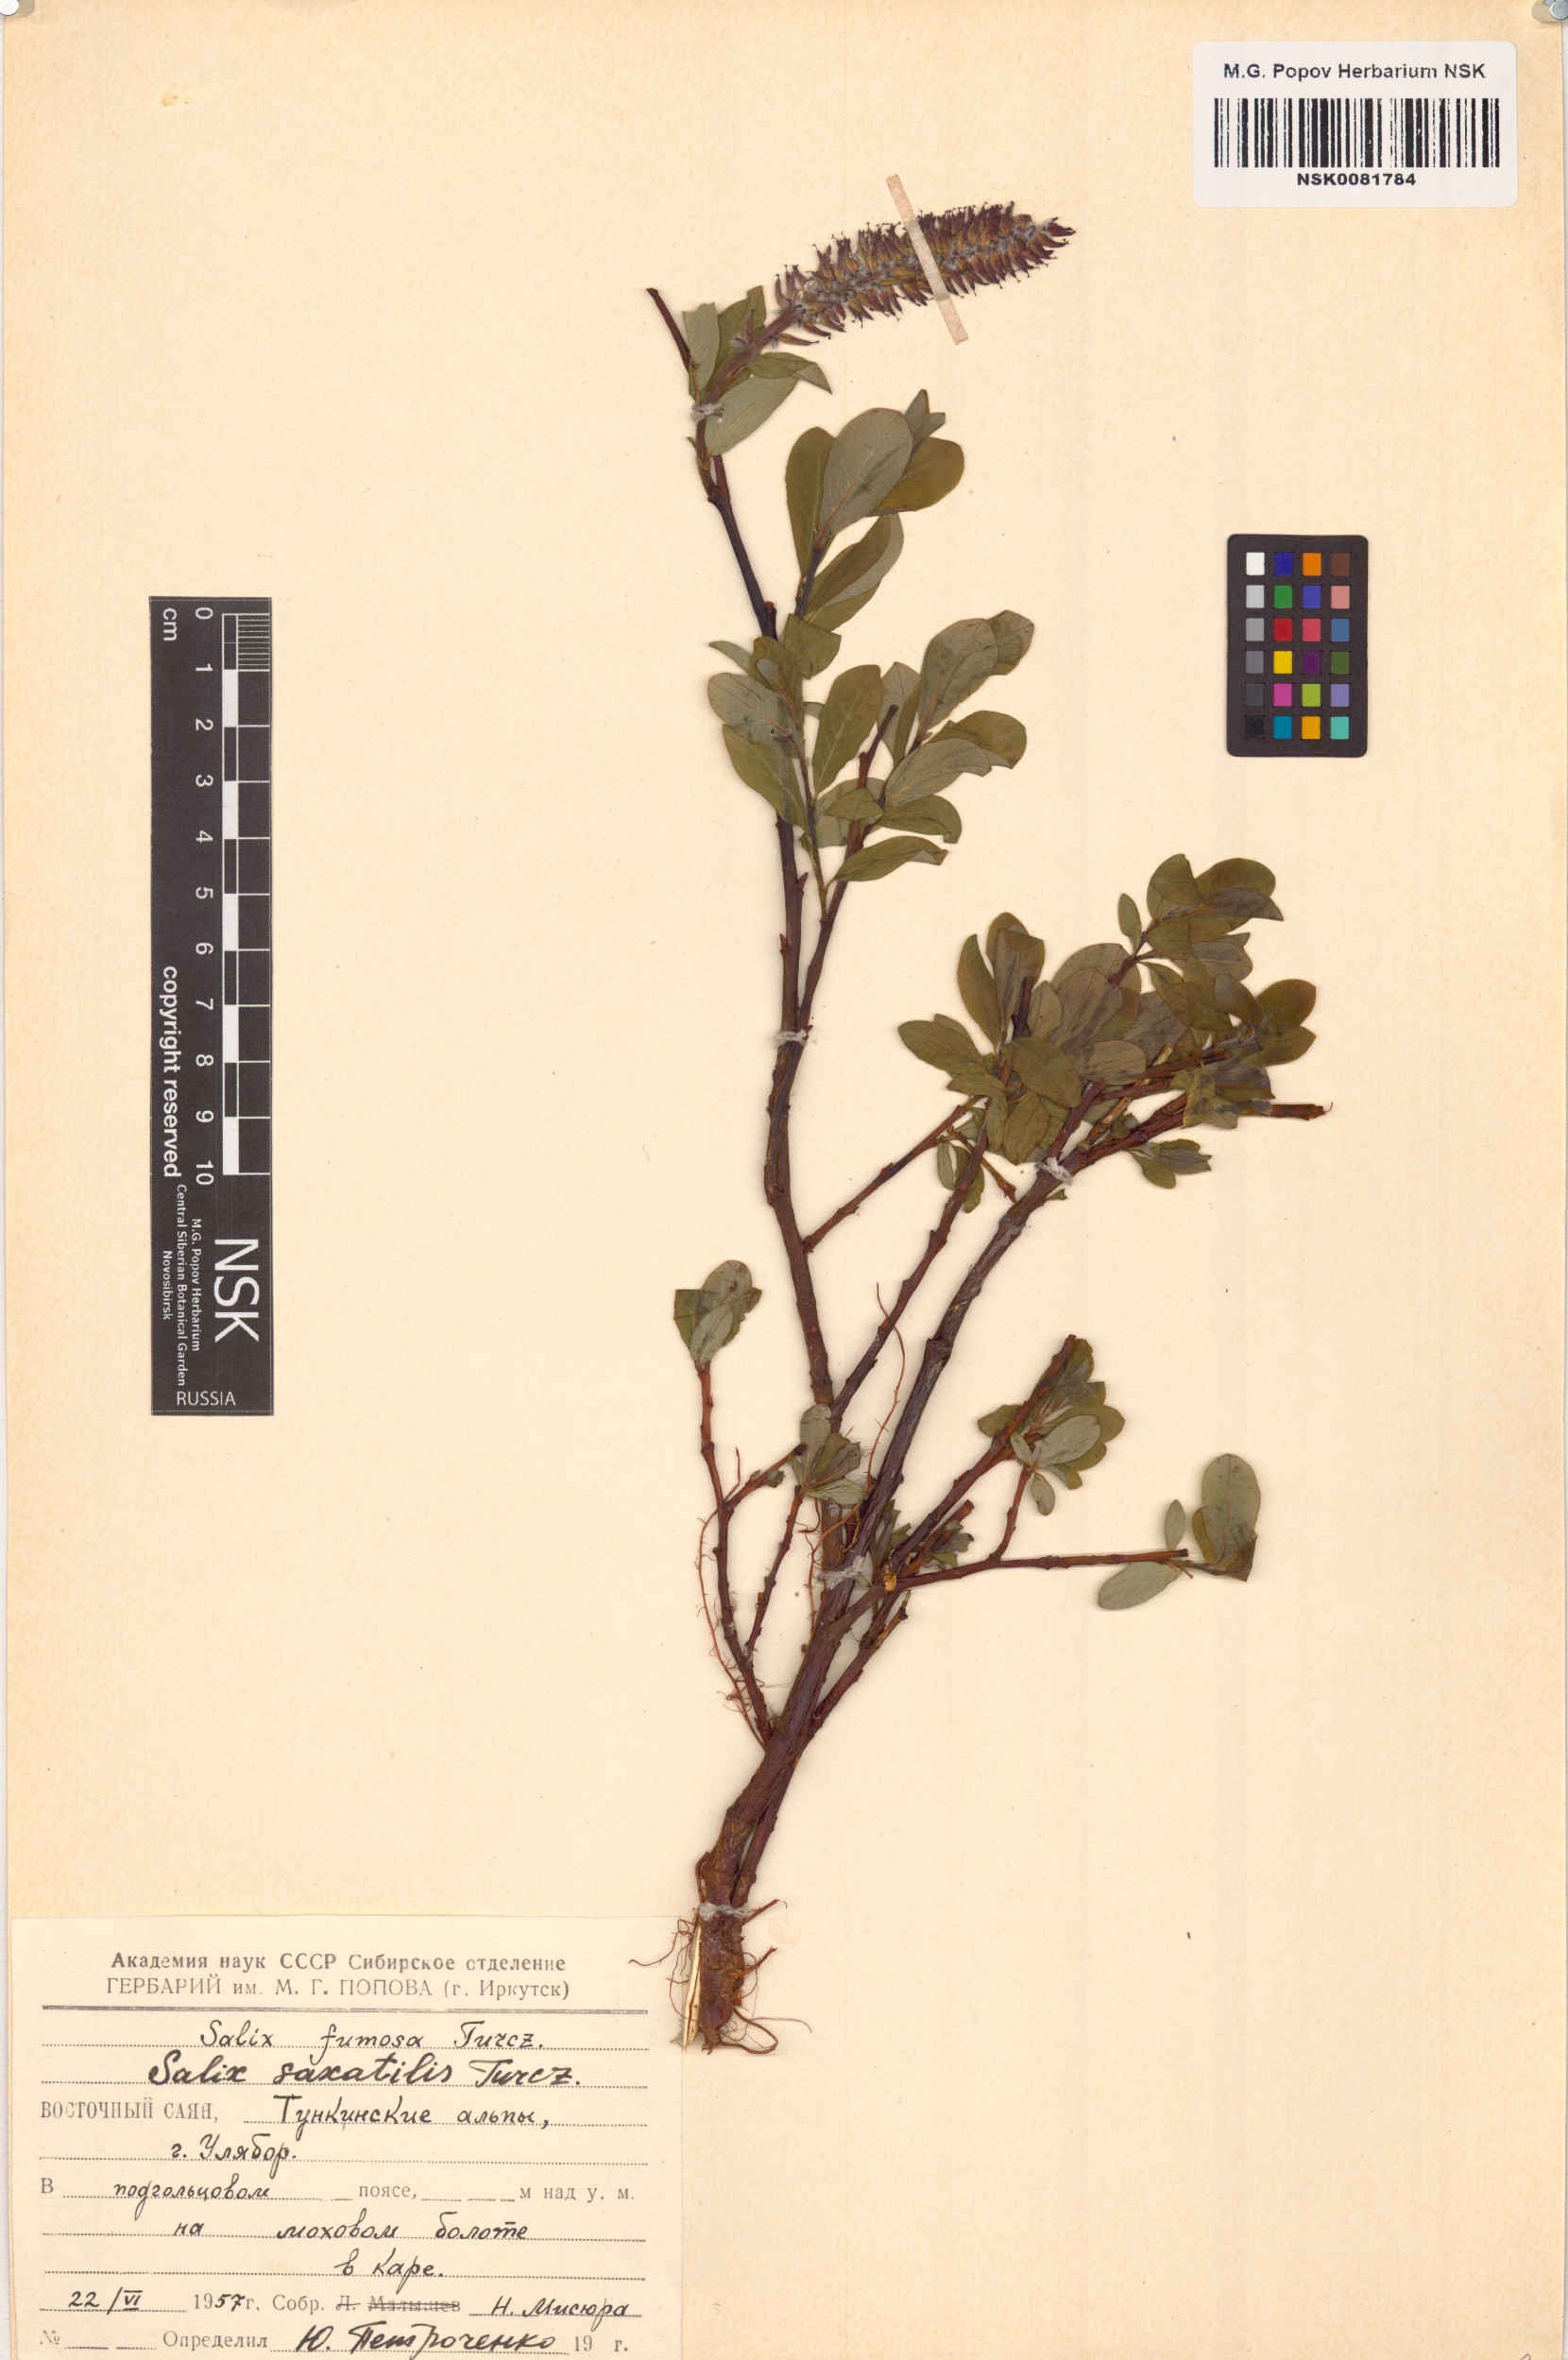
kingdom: Plantae
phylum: Tracheophyta
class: Magnoliopsida
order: Malpighiales
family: Salicaceae
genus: Salix
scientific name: Salix saxatilis
